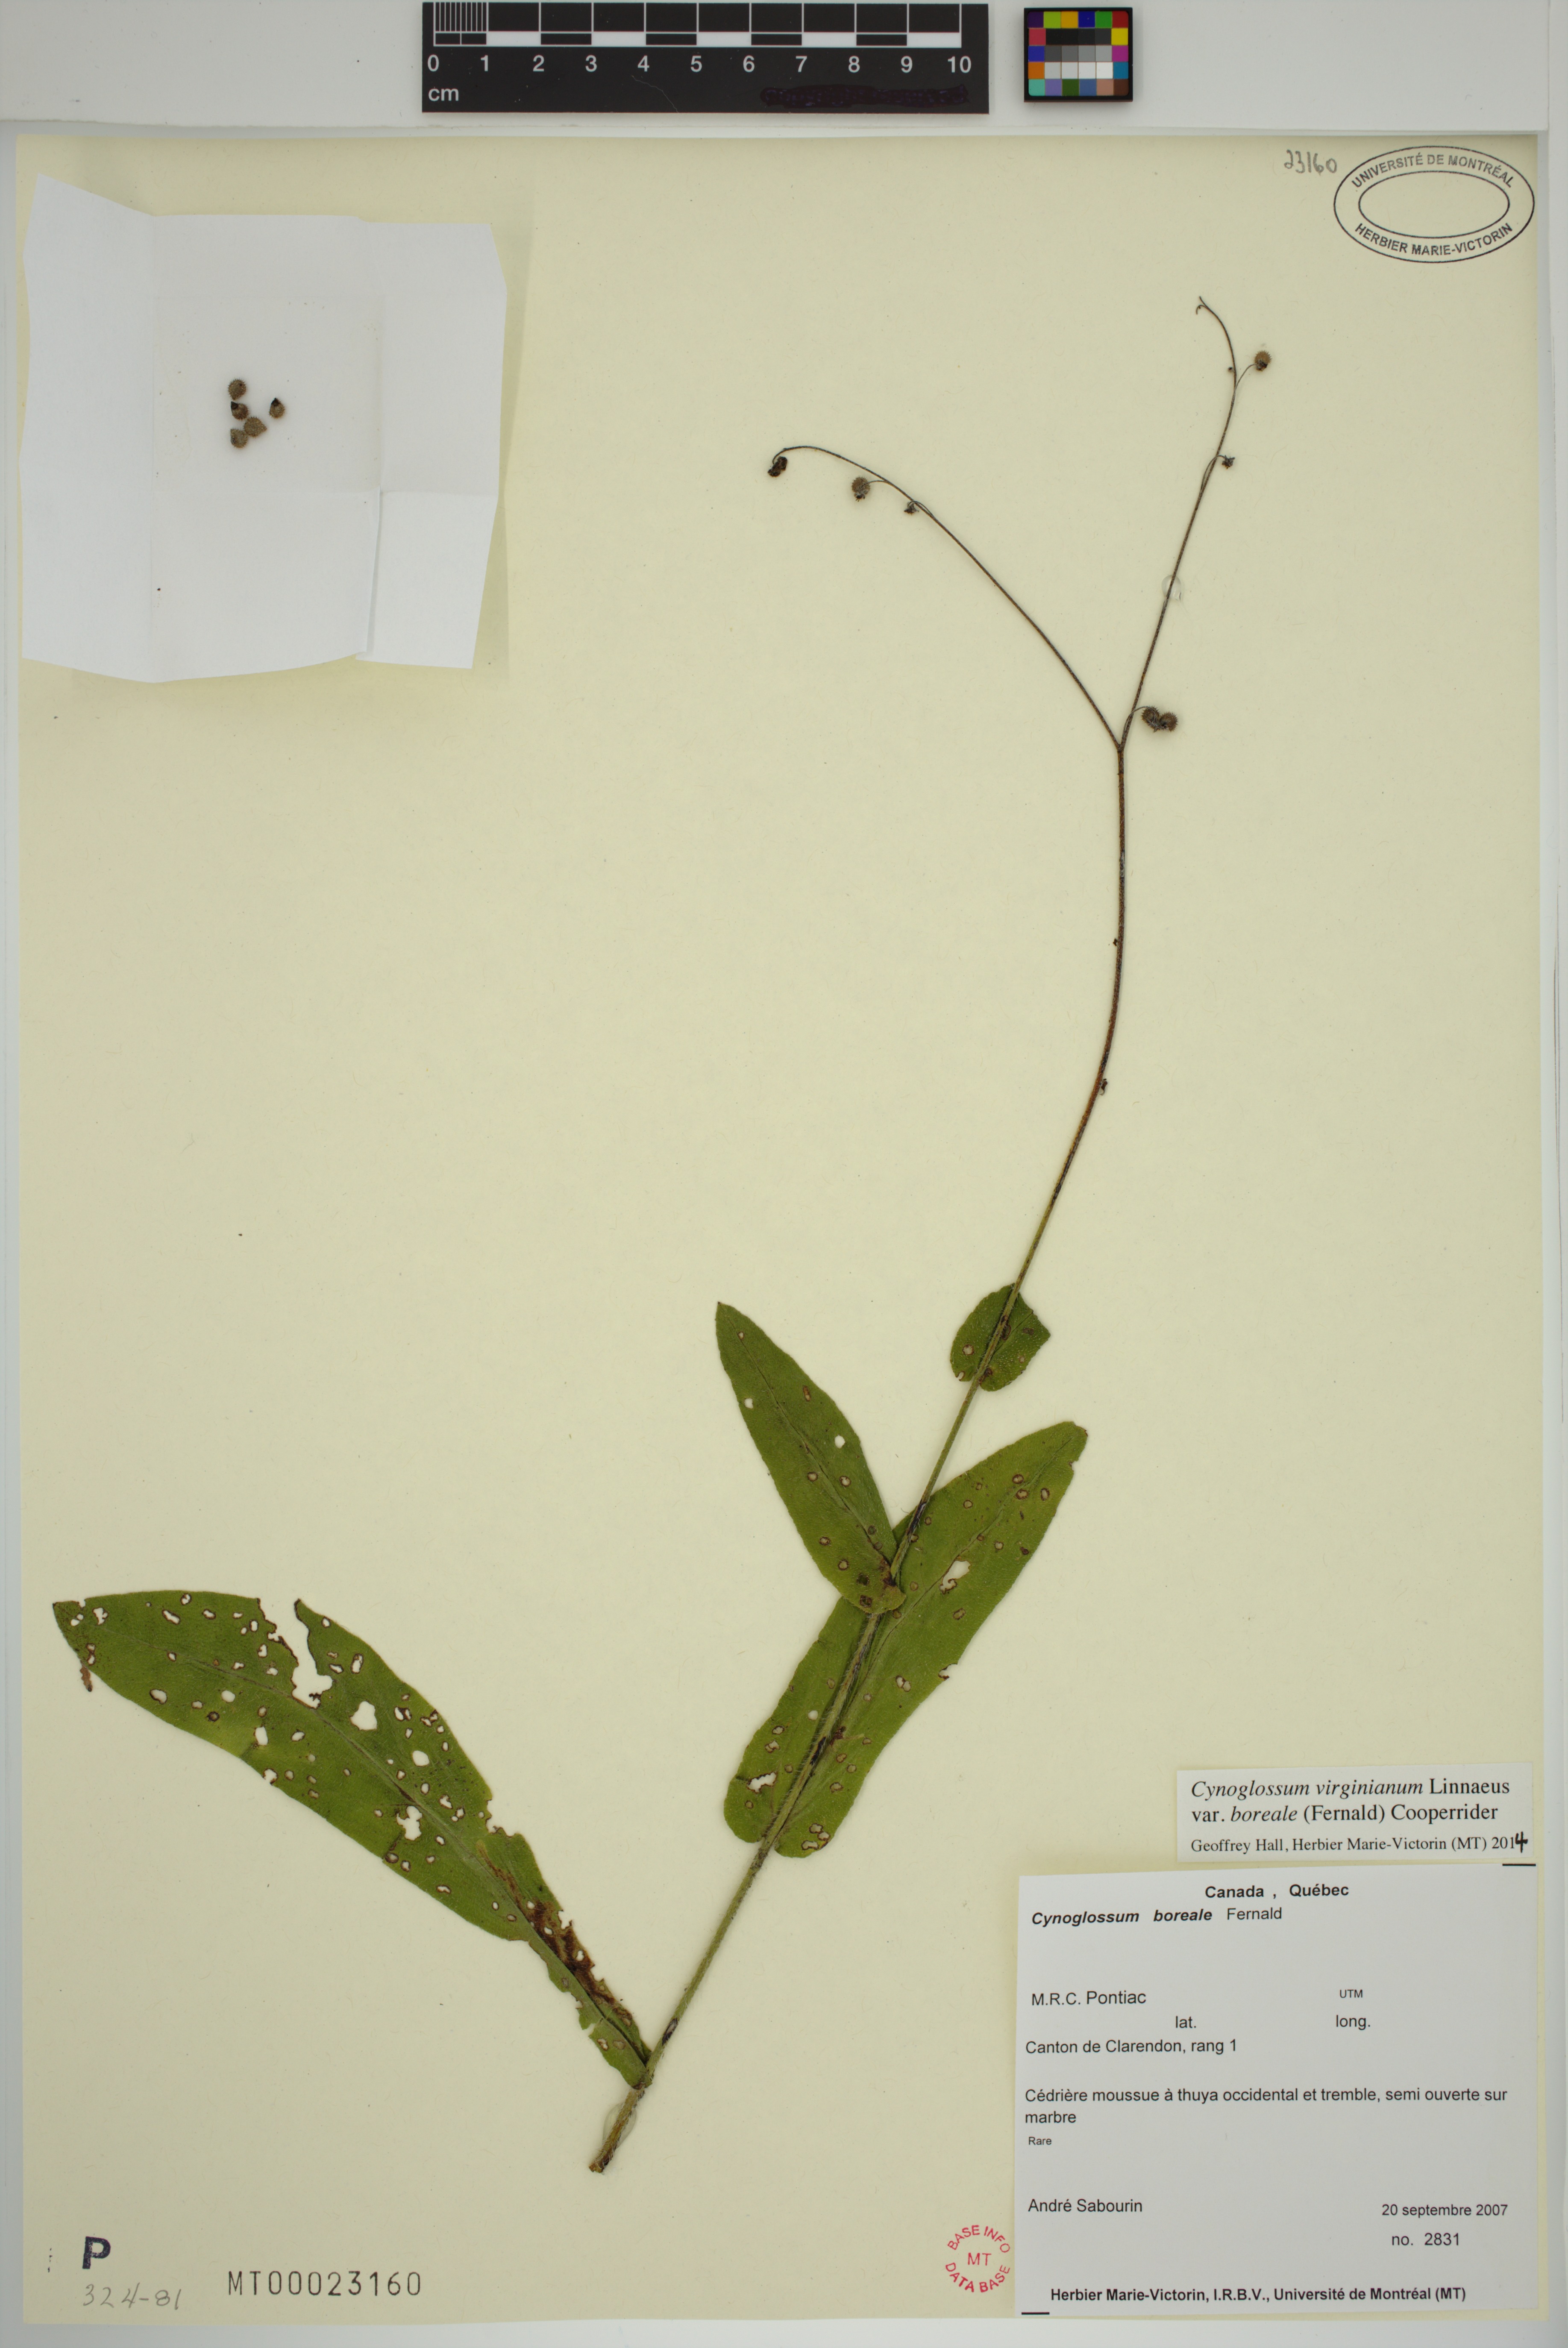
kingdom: Plantae
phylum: Tracheophyta
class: Magnoliopsida
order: Boraginales
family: Boraginaceae
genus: Andersonglossum
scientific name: Andersonglossum boreale
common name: Northern hound's-tongue
